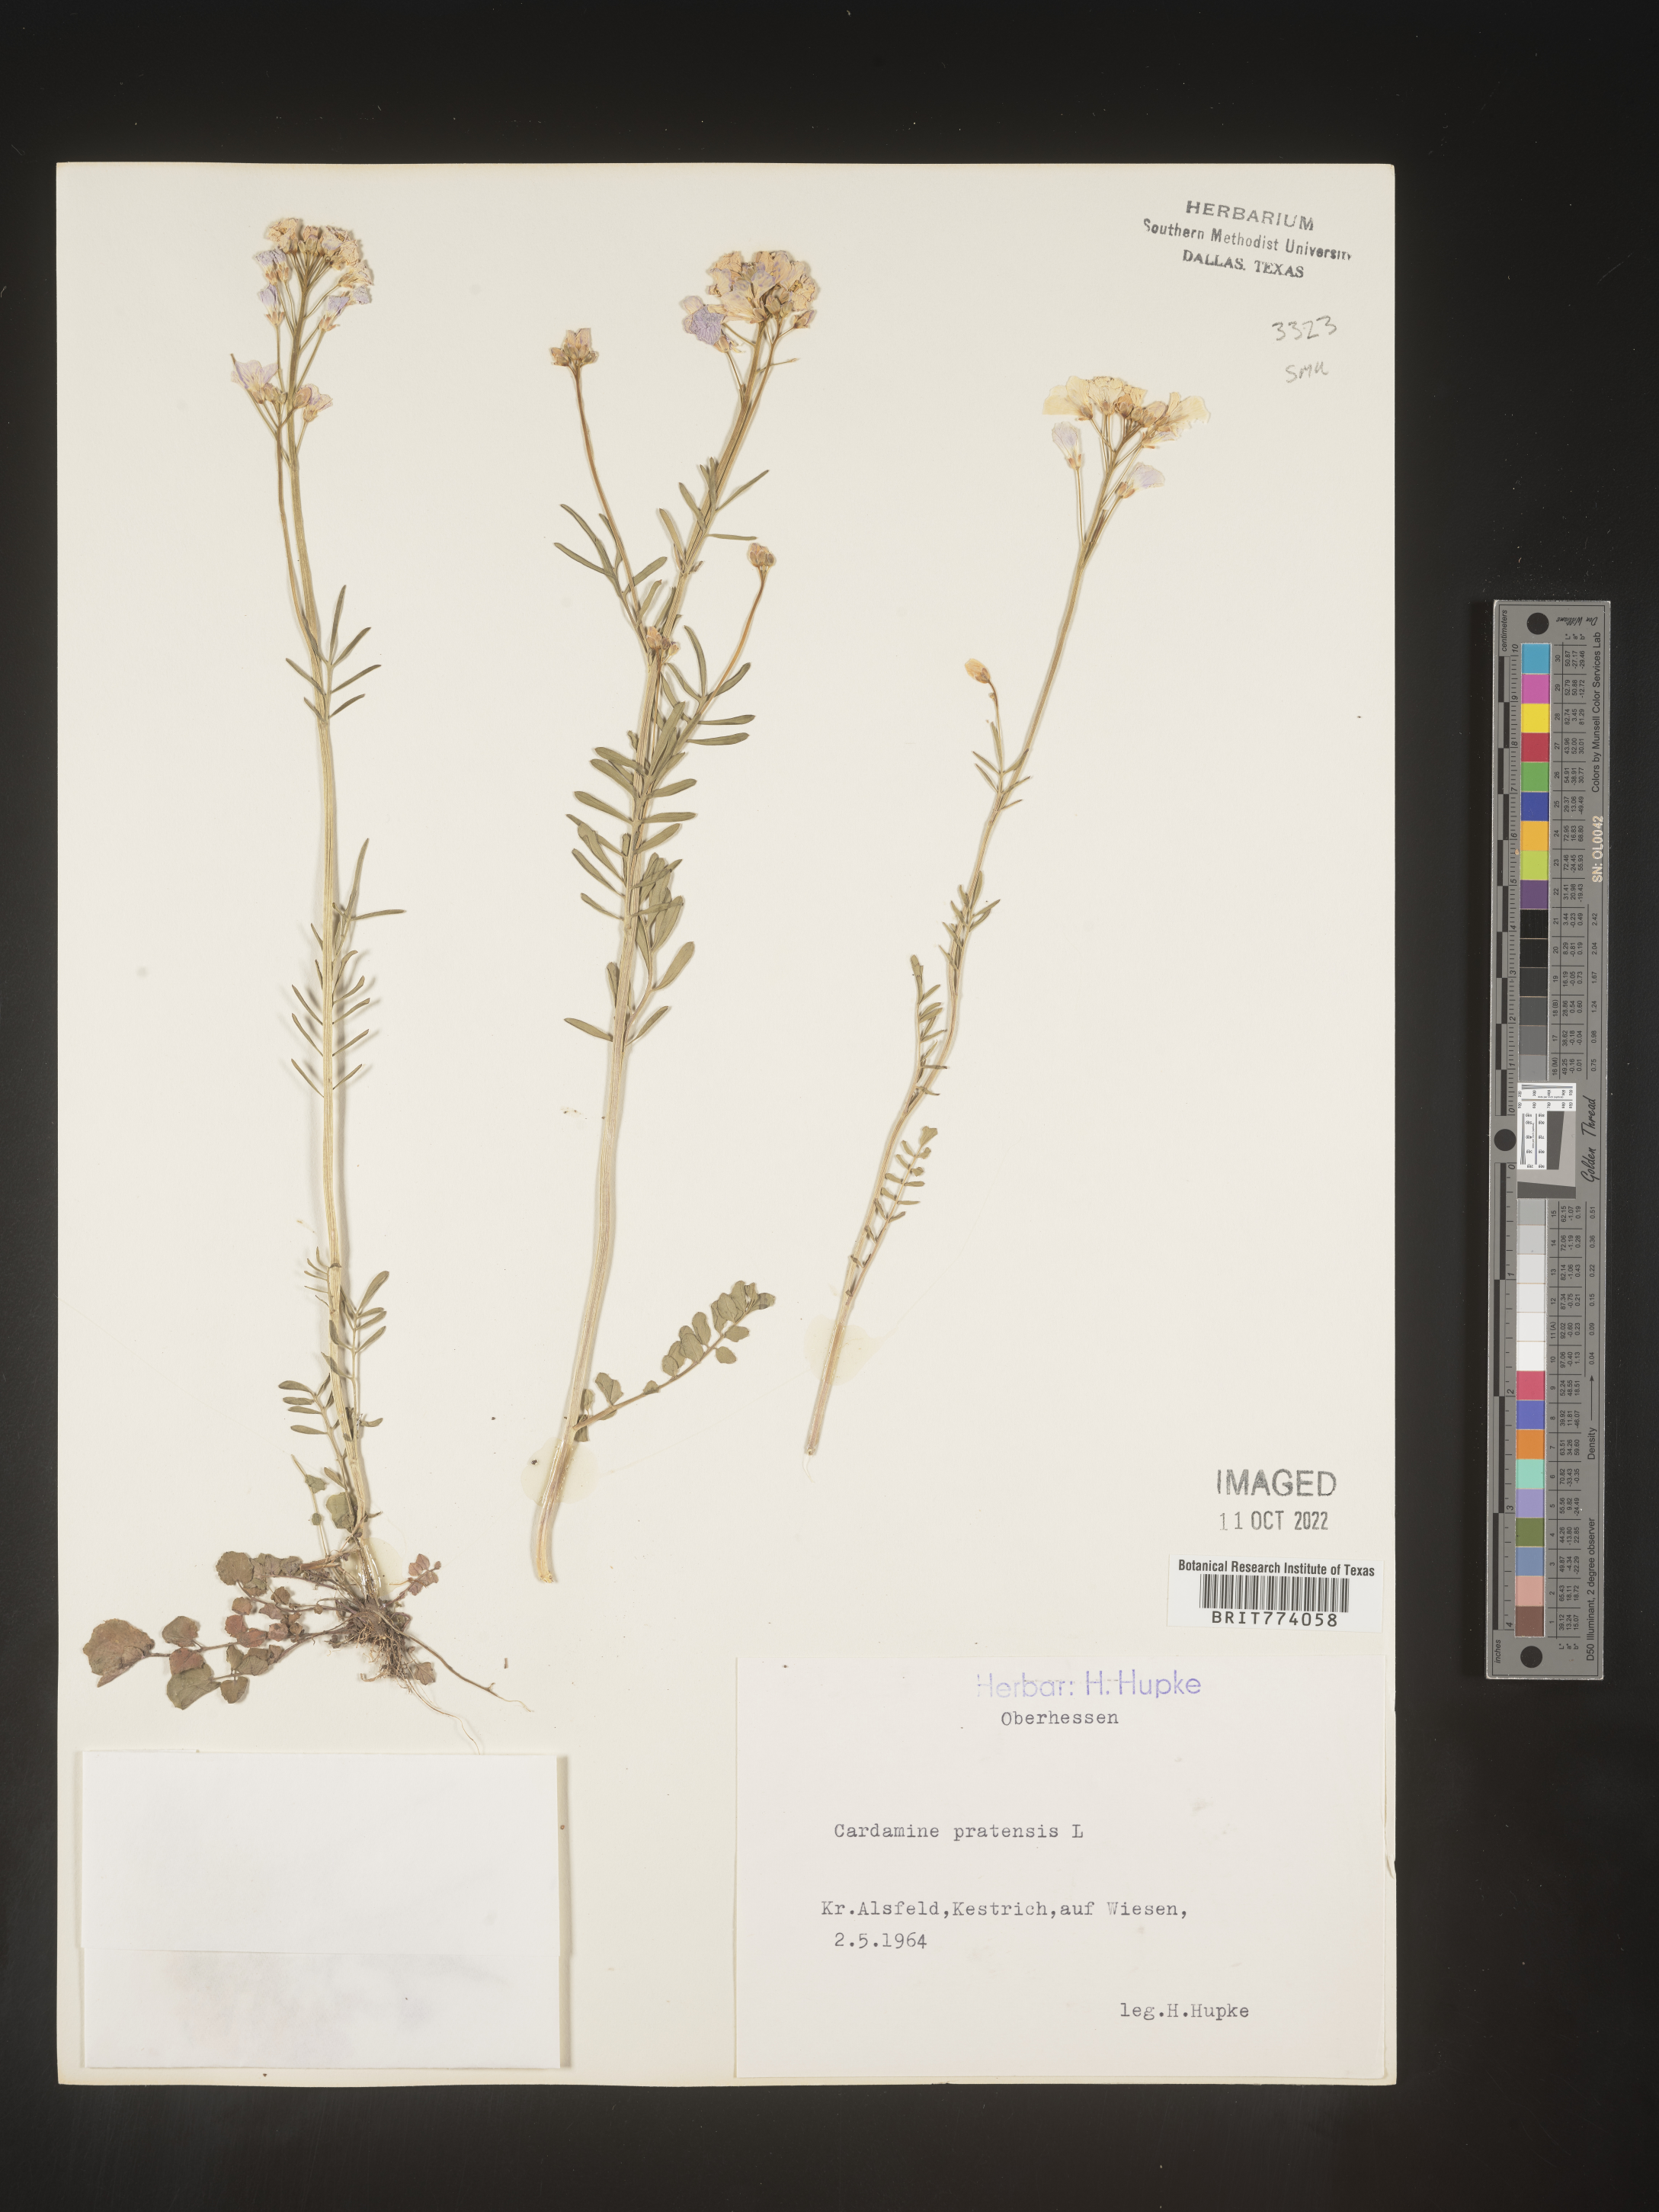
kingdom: Plantae
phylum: Tracheophyta
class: Magnoliopsida
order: Brassicales
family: Brassicaceae
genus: Cardamine
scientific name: Cardamine pratensis
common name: Cuckoo flower
